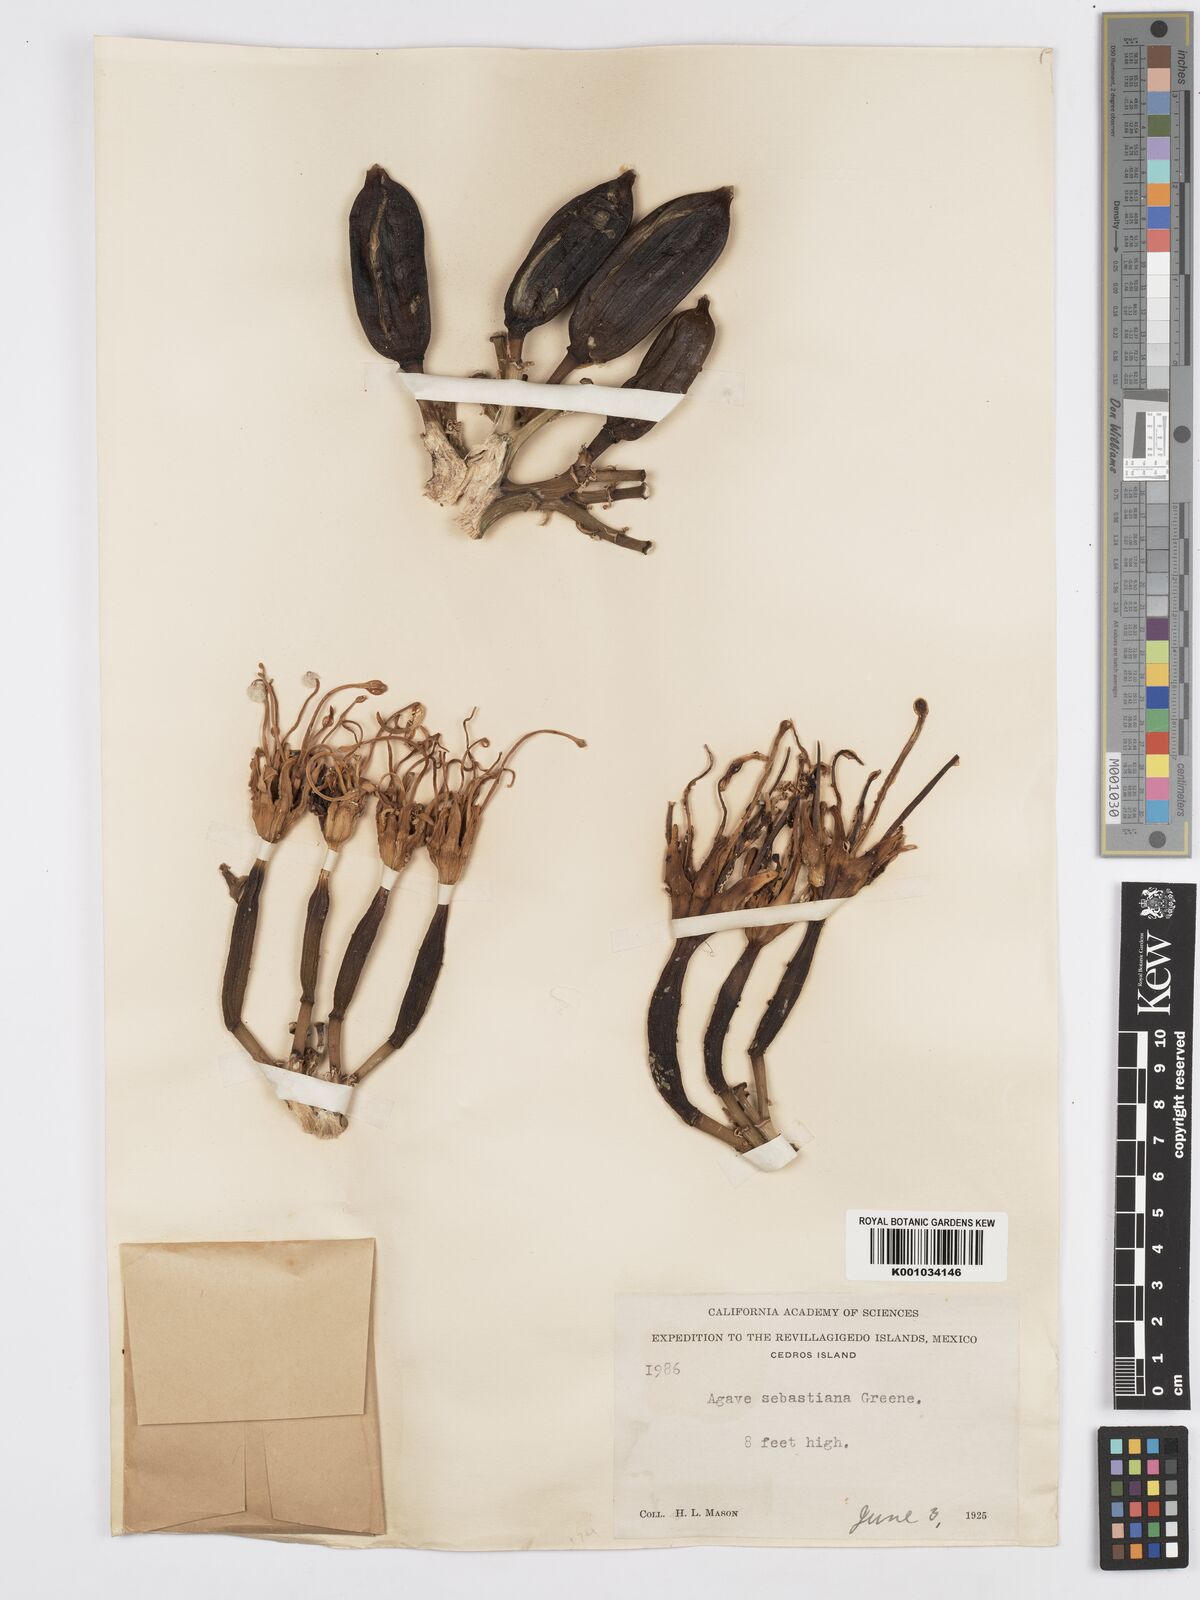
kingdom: Plantae
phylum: Tracheophyta
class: Liliopsida
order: Asparagales
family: Asparagaceae
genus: Agave
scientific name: Agave sebastiana
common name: Cedros agave
